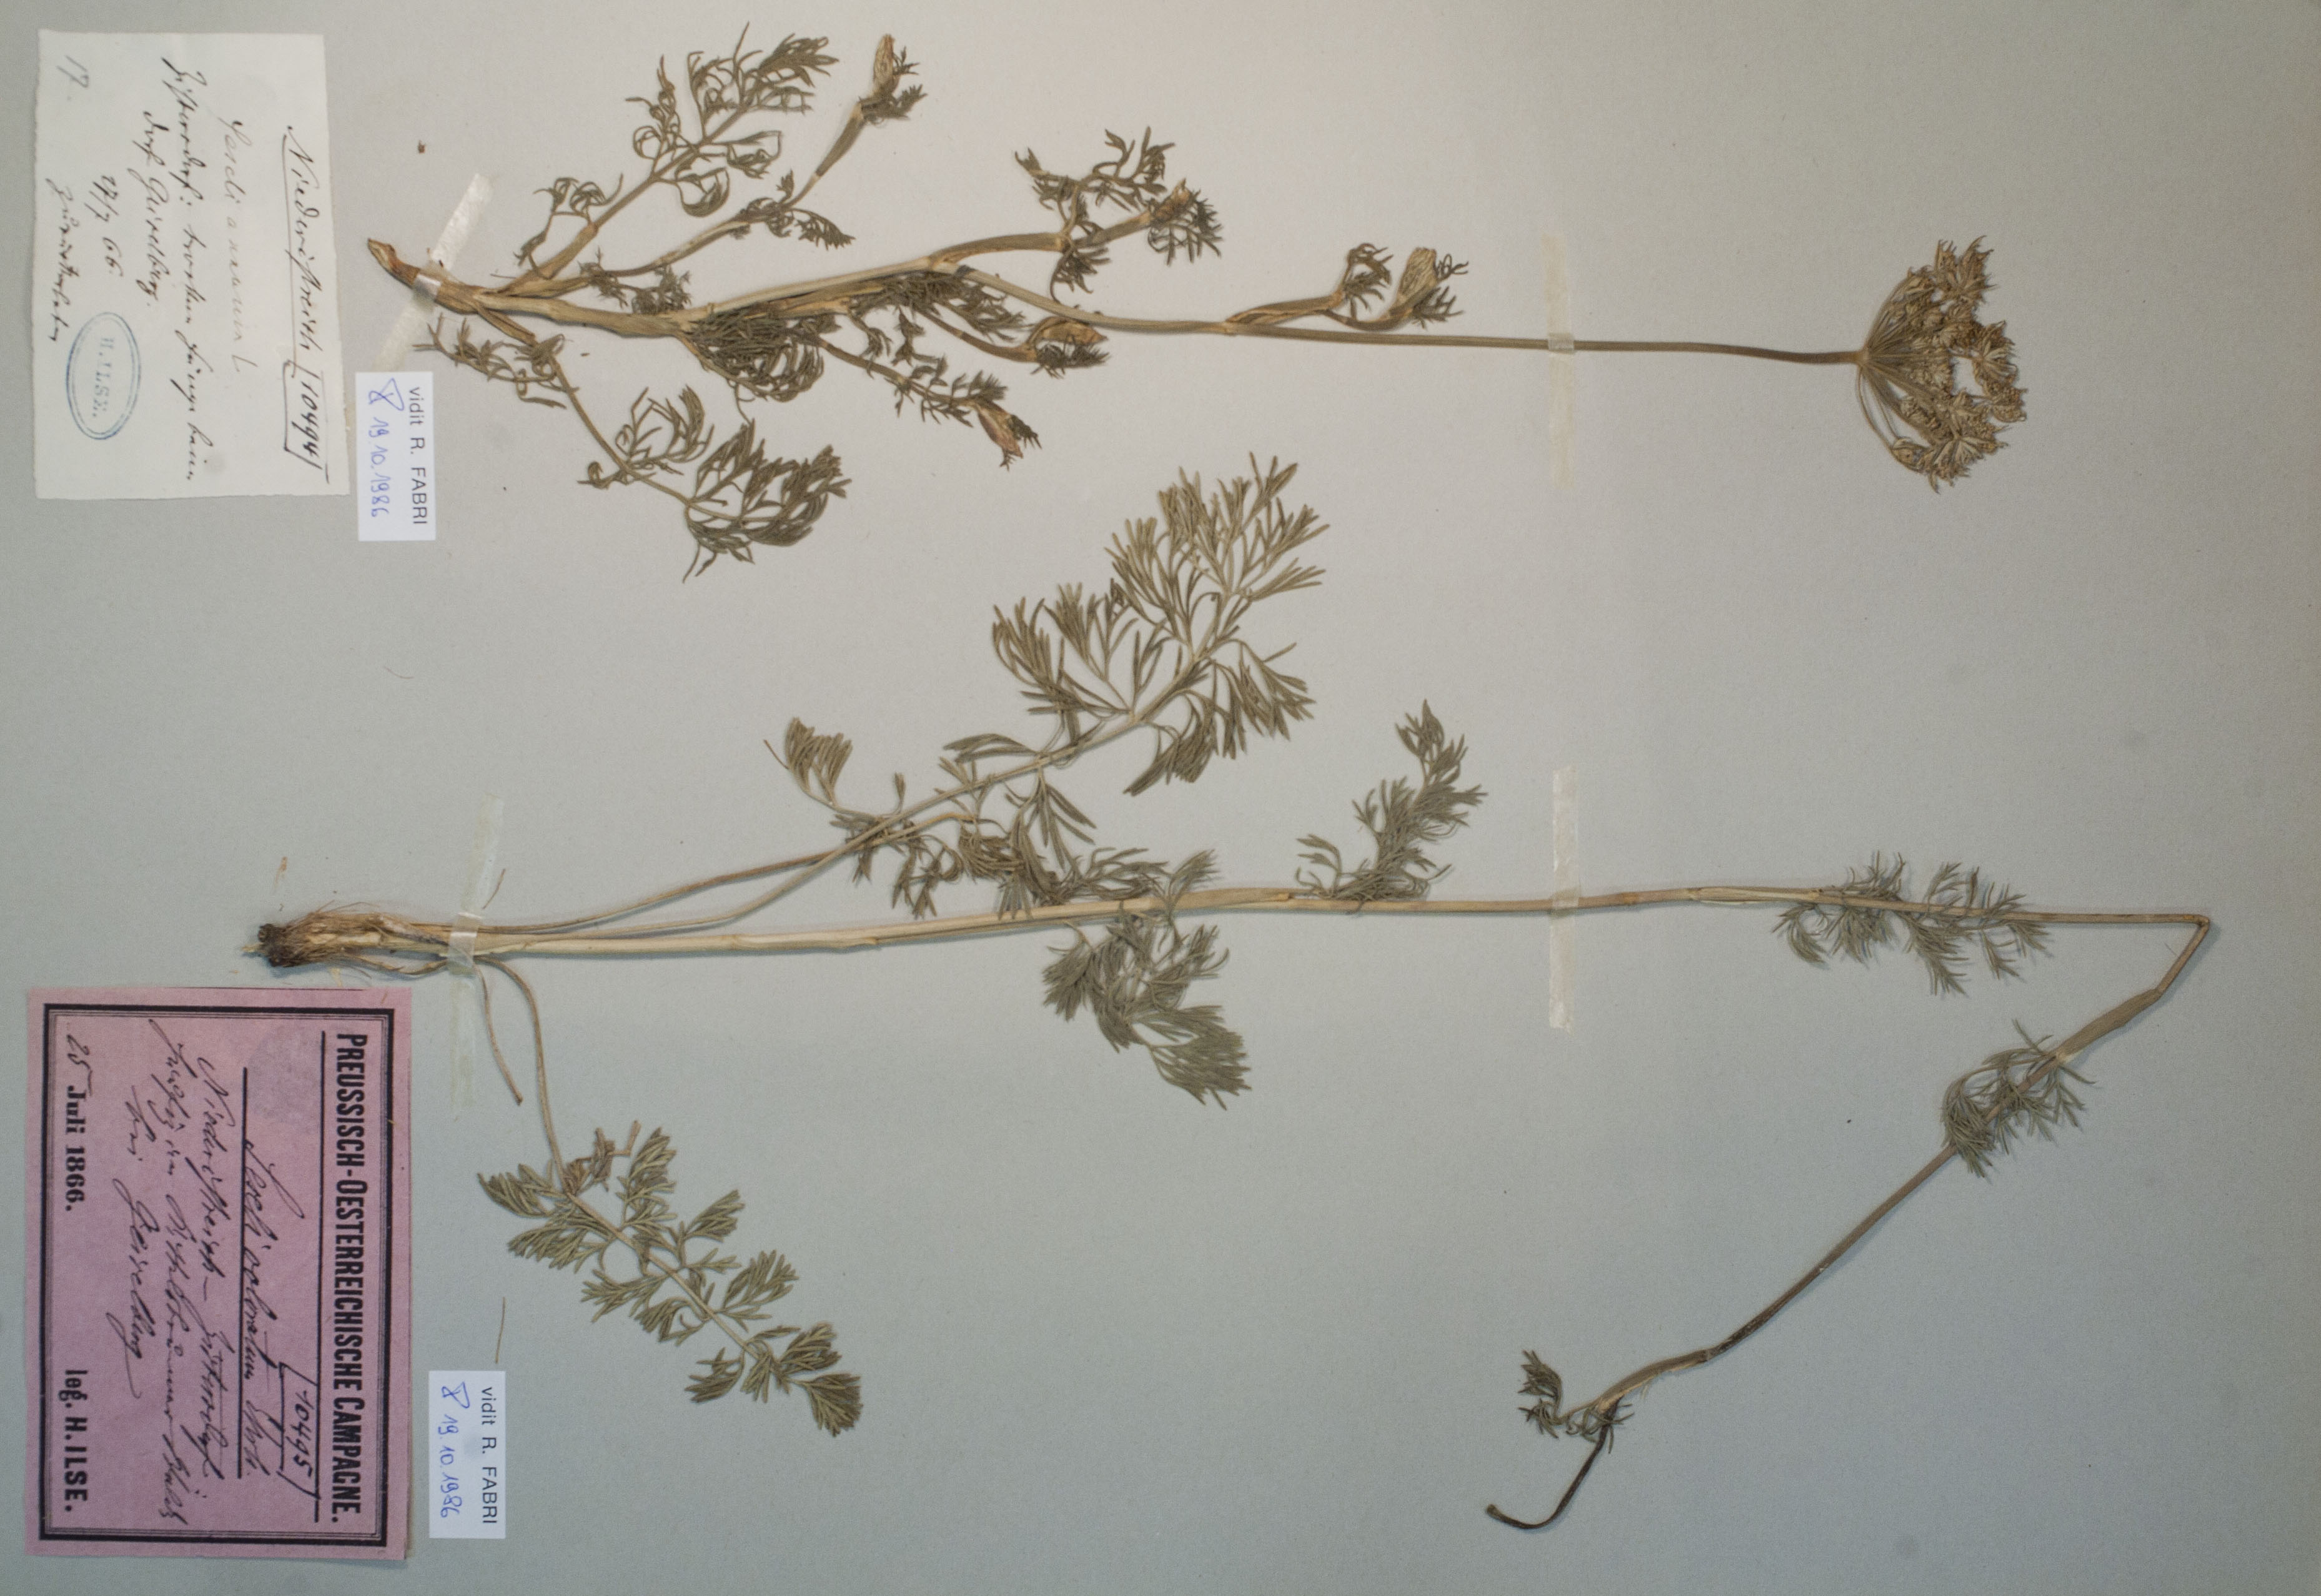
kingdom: Plantae
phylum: Tracheophyta
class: Magnoliopsida
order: Apiales
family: Apiaceae
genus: Seseli
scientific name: Seseli annuum
